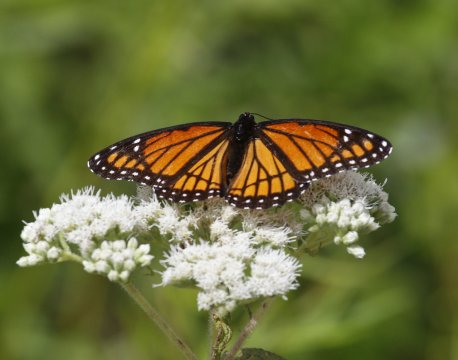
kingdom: Animalia
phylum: Arthropoda
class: Insecta
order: Lepidoptera
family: Nymphalidae
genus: Limenitis
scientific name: Limenitis archippus
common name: Viceroy
